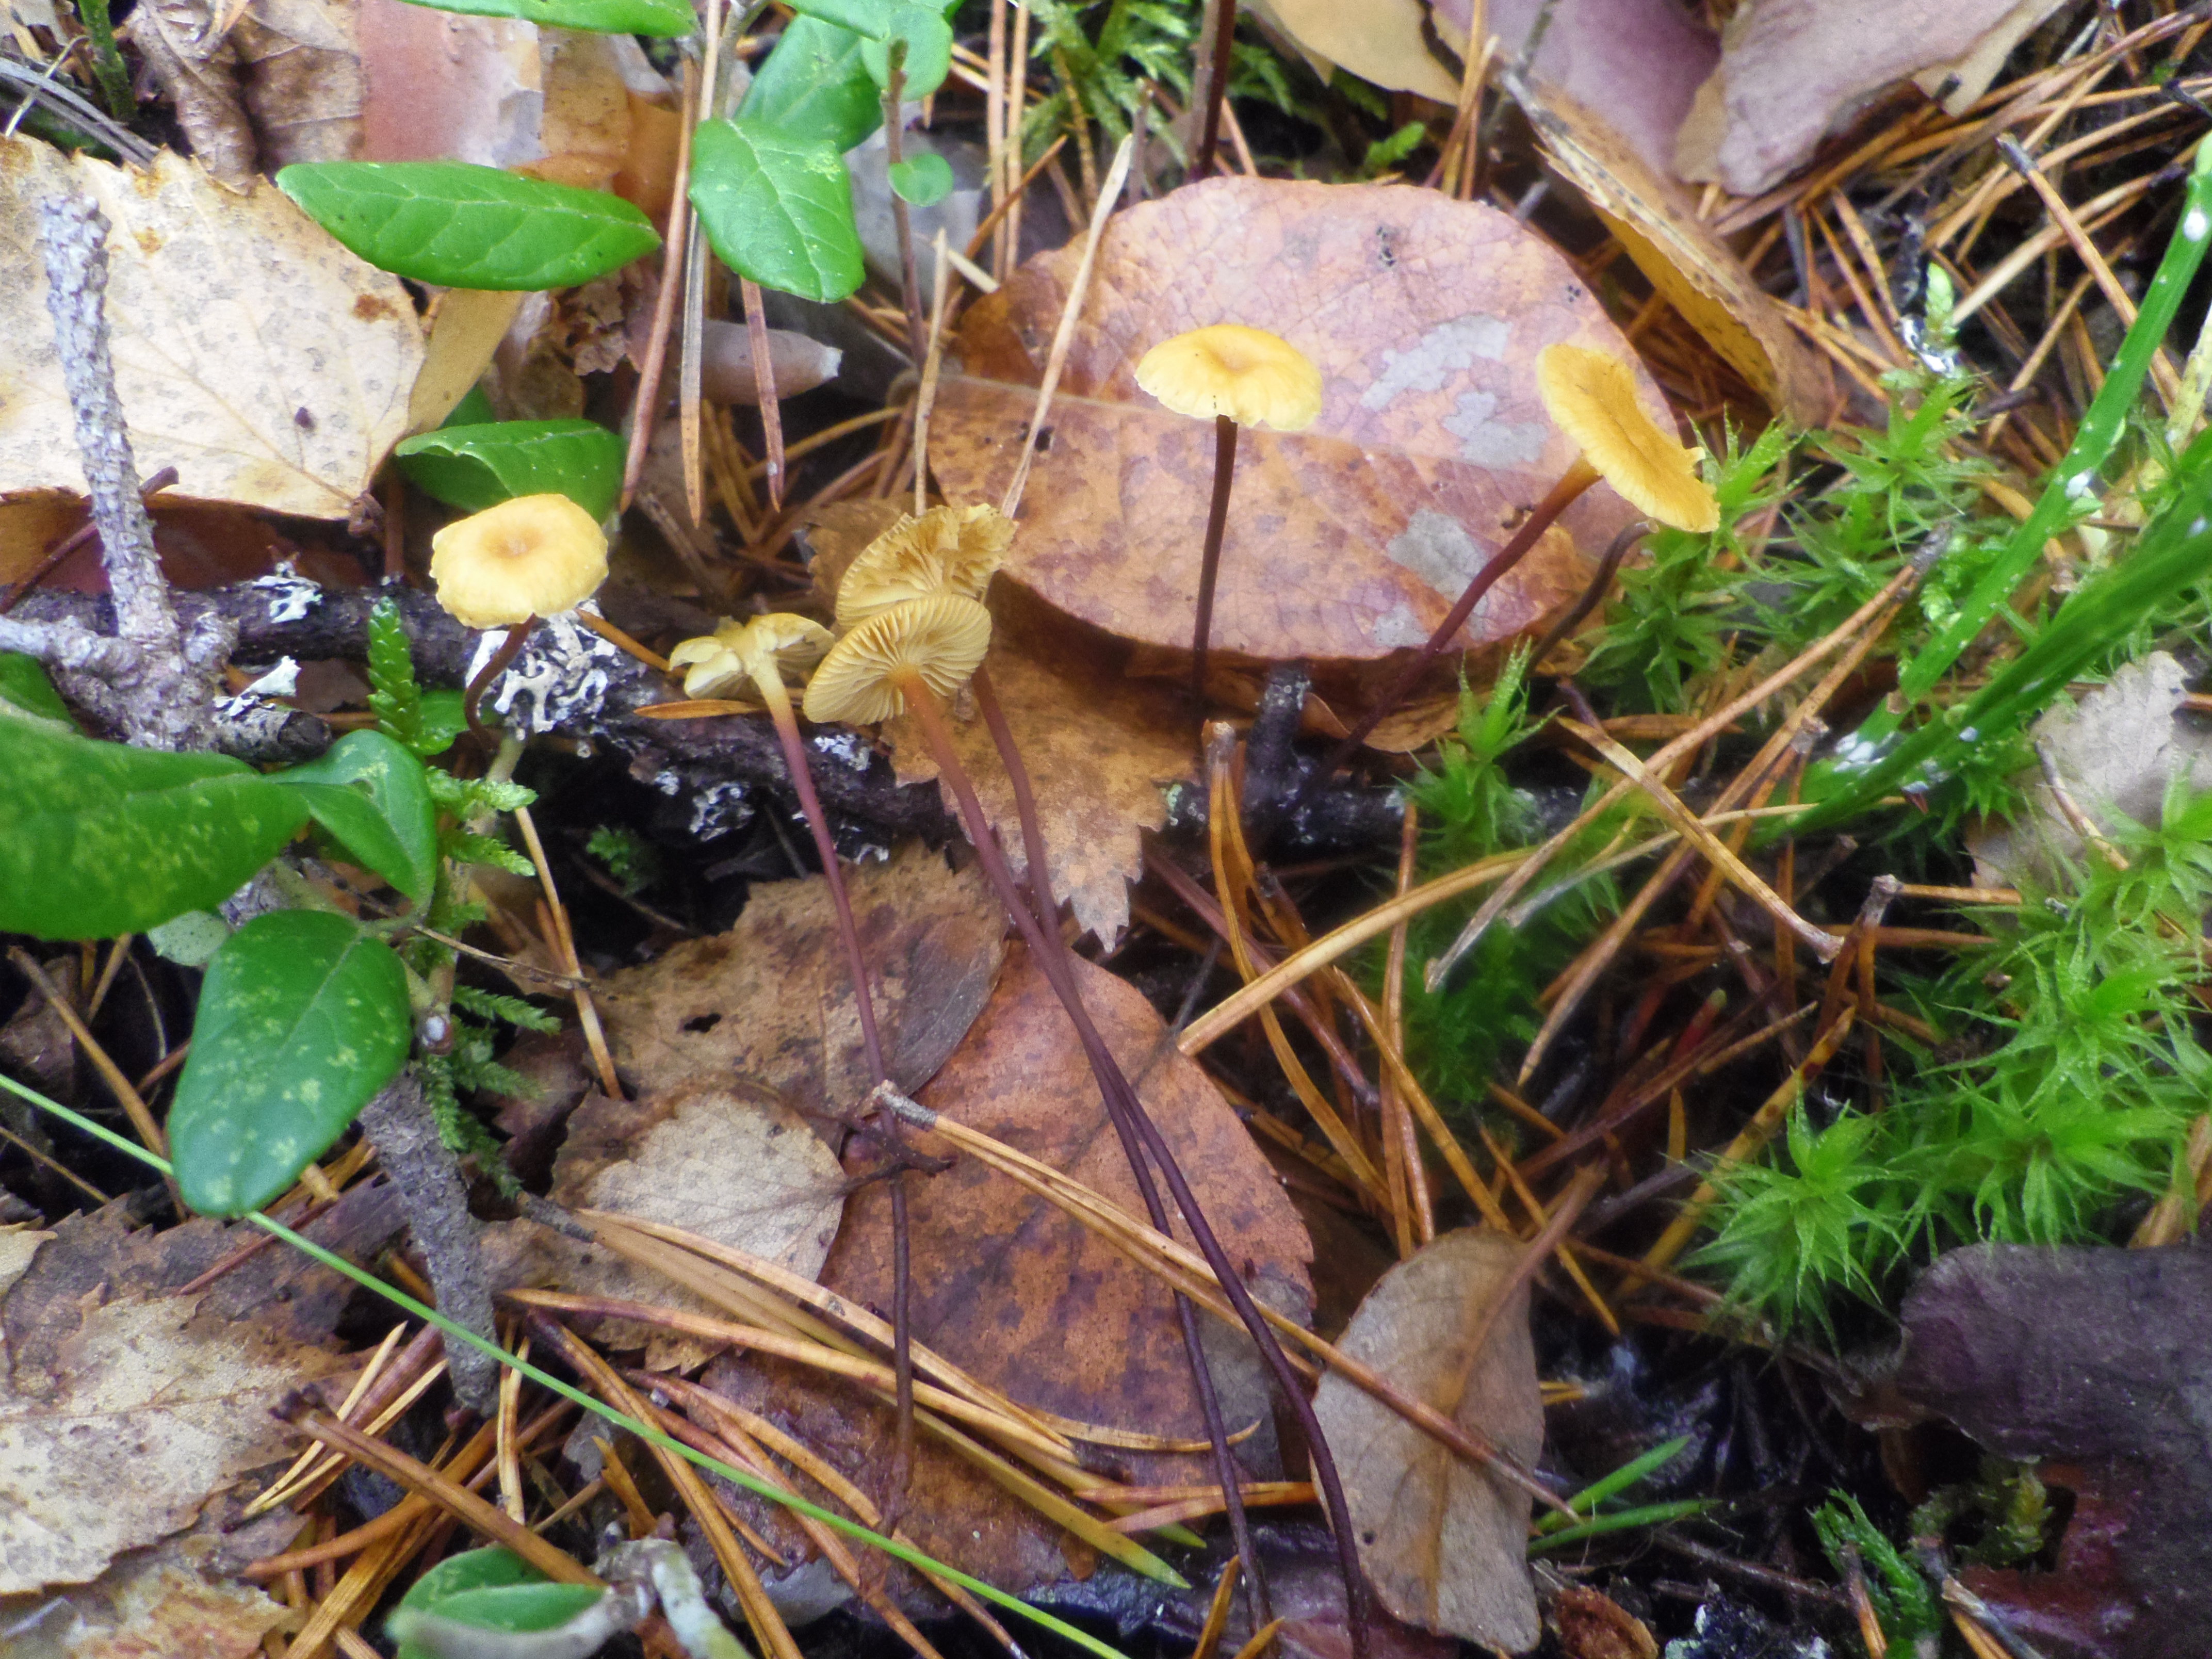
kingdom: Fungi
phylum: Basidiomycota
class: Agaricomycetes
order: Agaricales
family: Mycenaceae
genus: Xeromphalina
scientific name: Xeromphalina cauticinalis
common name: Pinelitter gingertail
